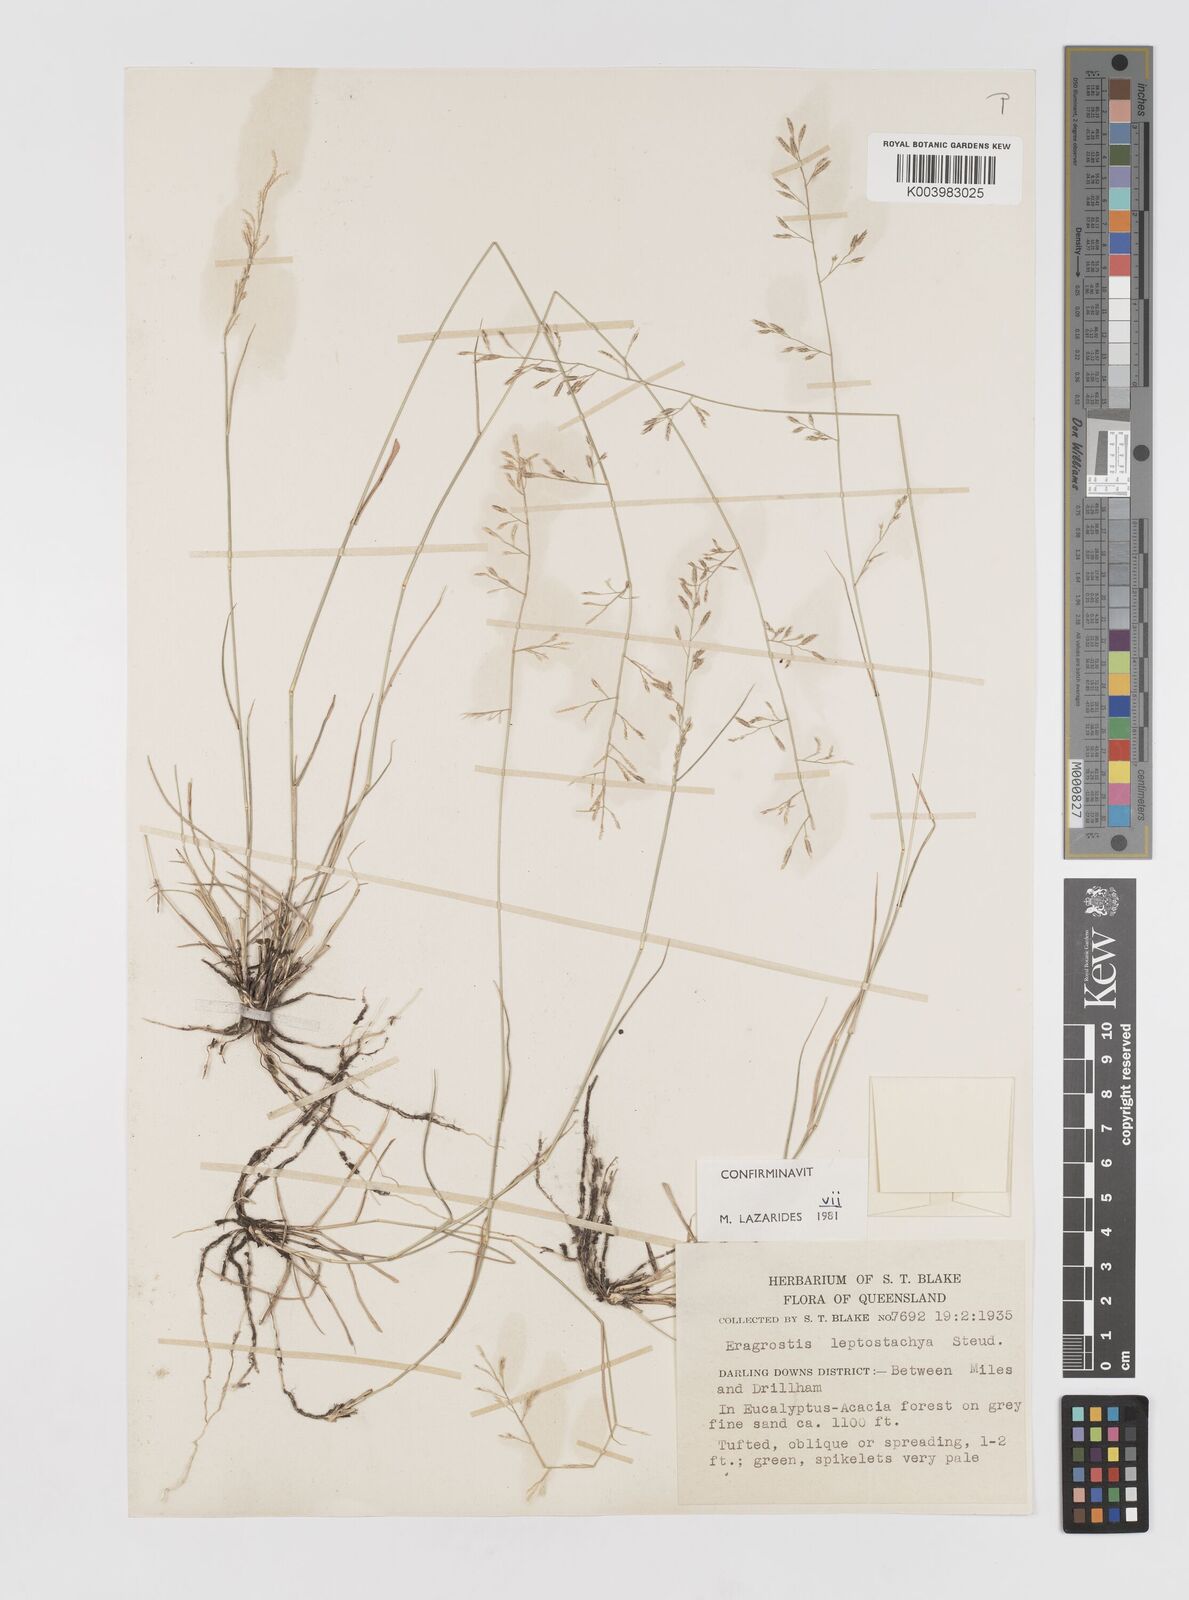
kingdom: Plantae
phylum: Tracheophyta
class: Liliopsida
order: Poales
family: Poaceae
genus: Eragrostis
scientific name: Eragrostis leptostachya
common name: Australian lovegrass
